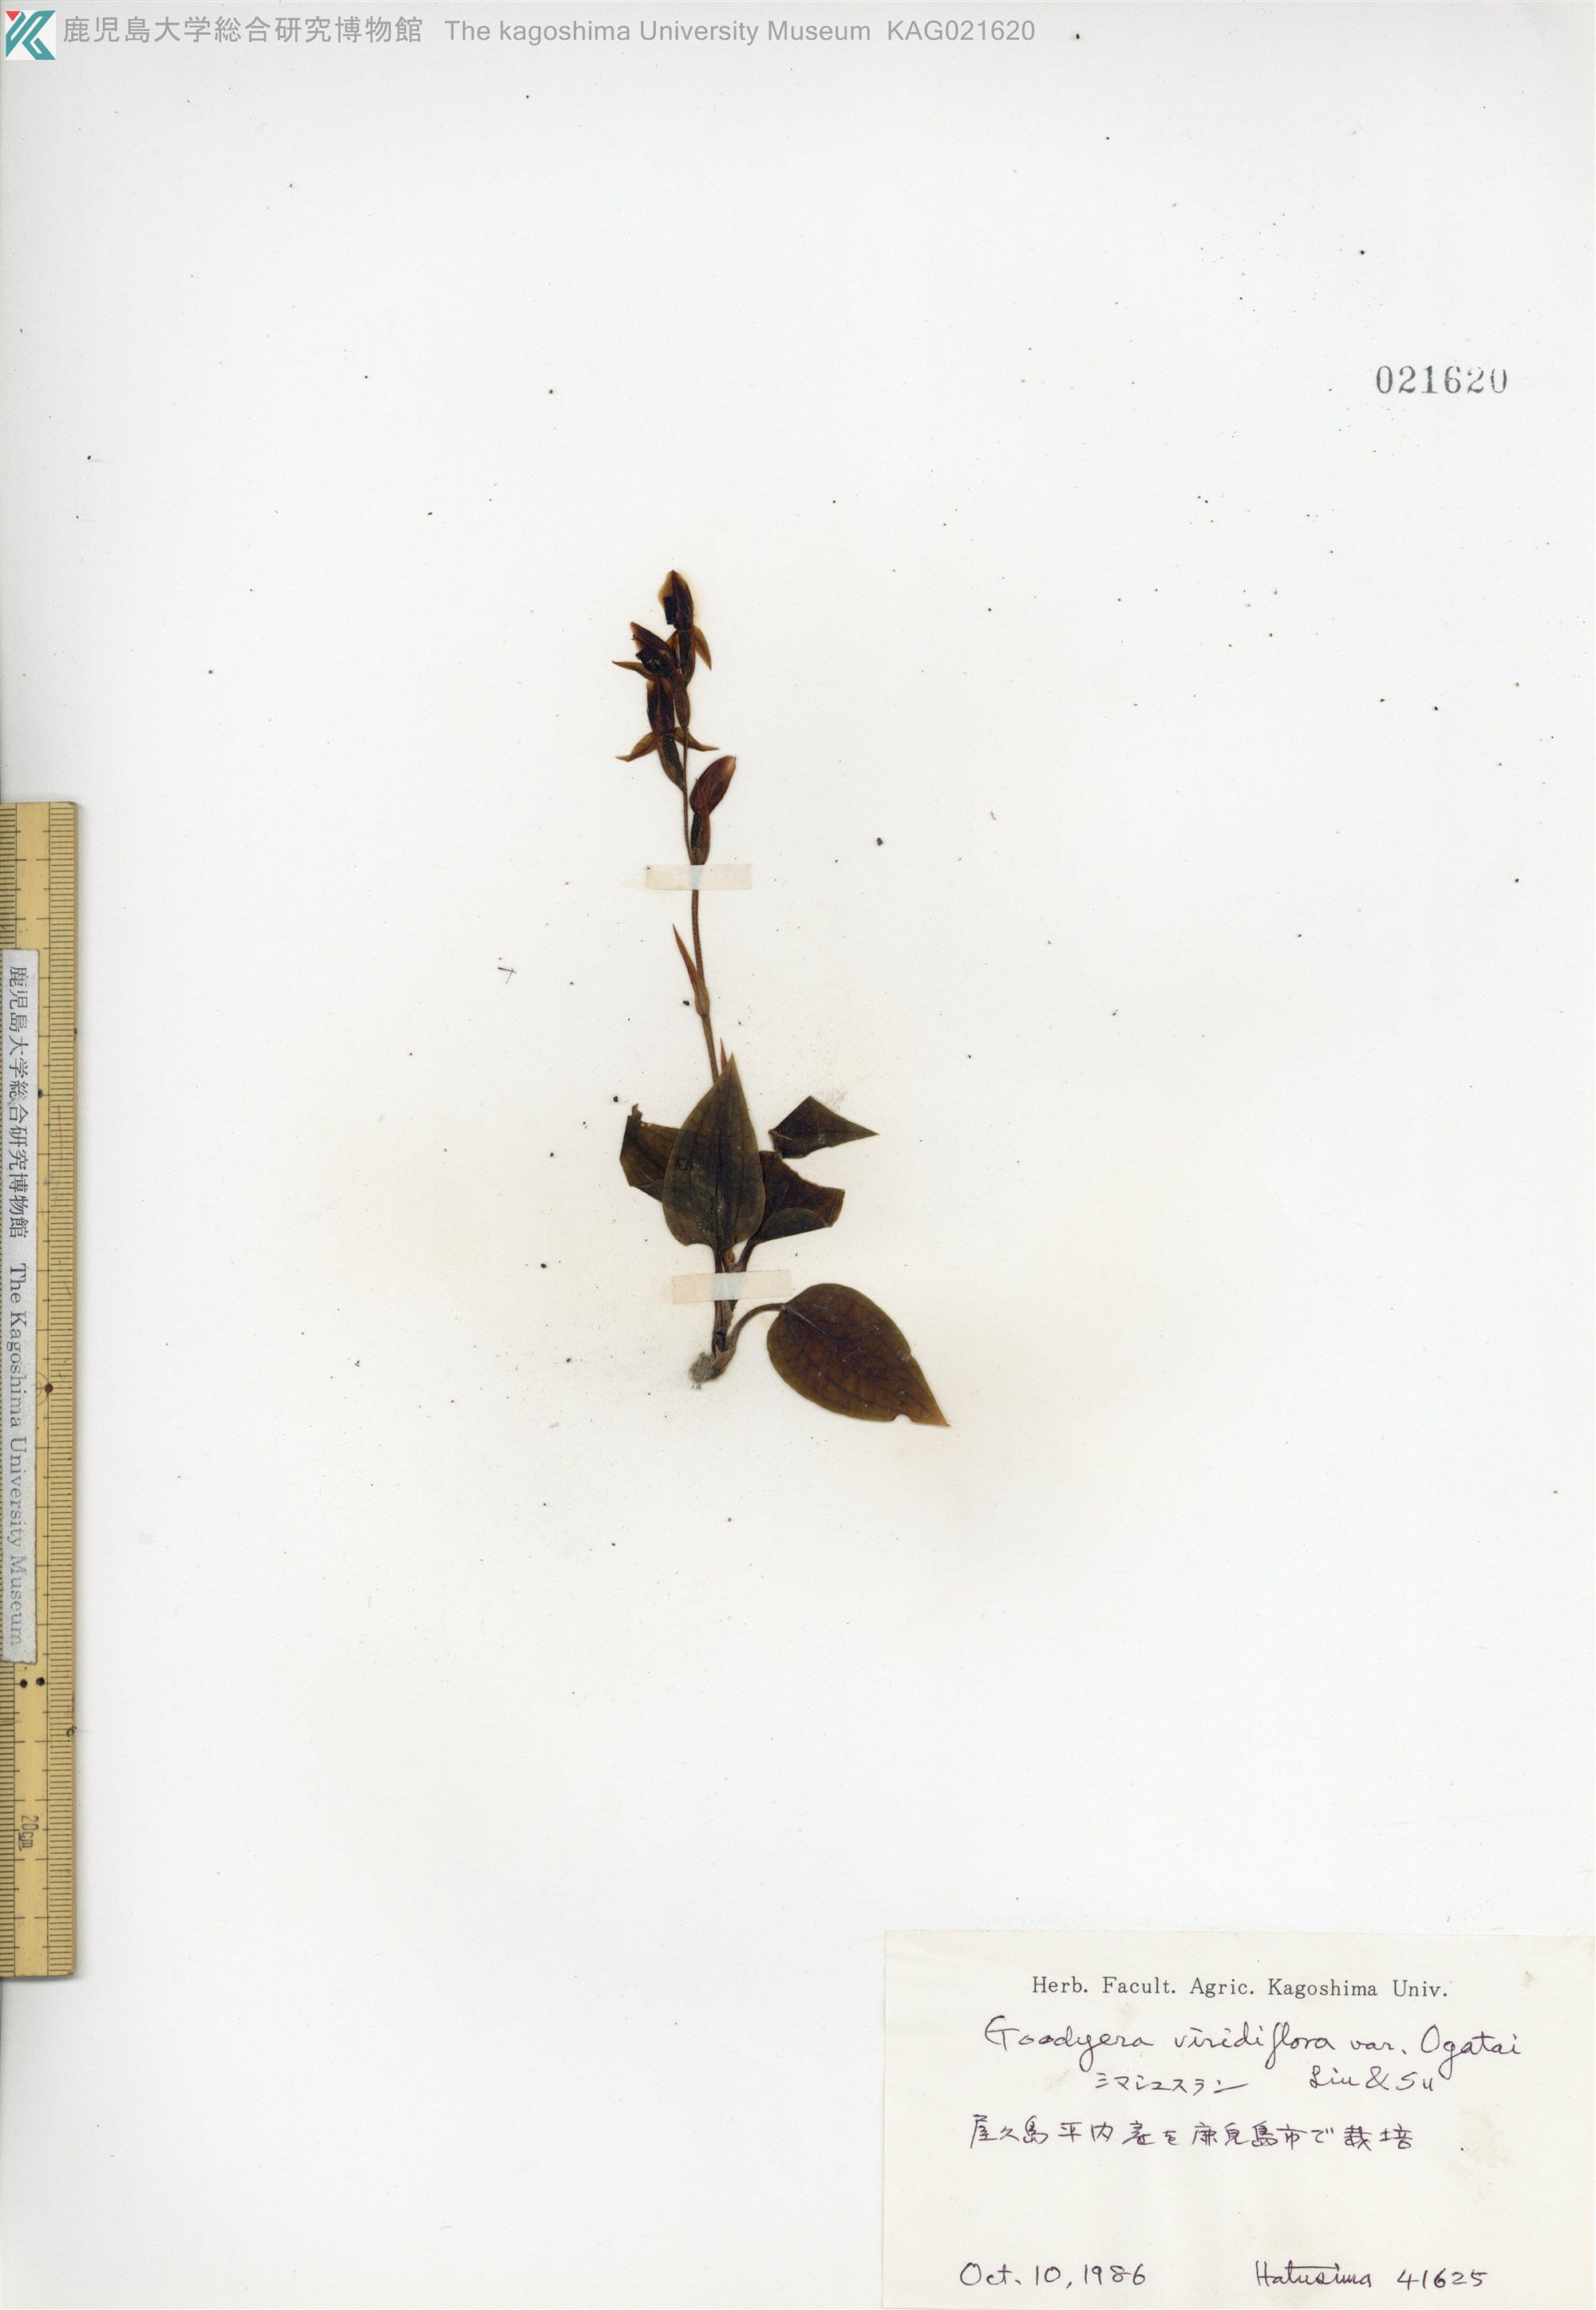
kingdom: Plantae
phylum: Tracheophyta
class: Liliopsida
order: Asparagales
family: Orchidaceae
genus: Goodyera
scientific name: Goodyera viridiflora
